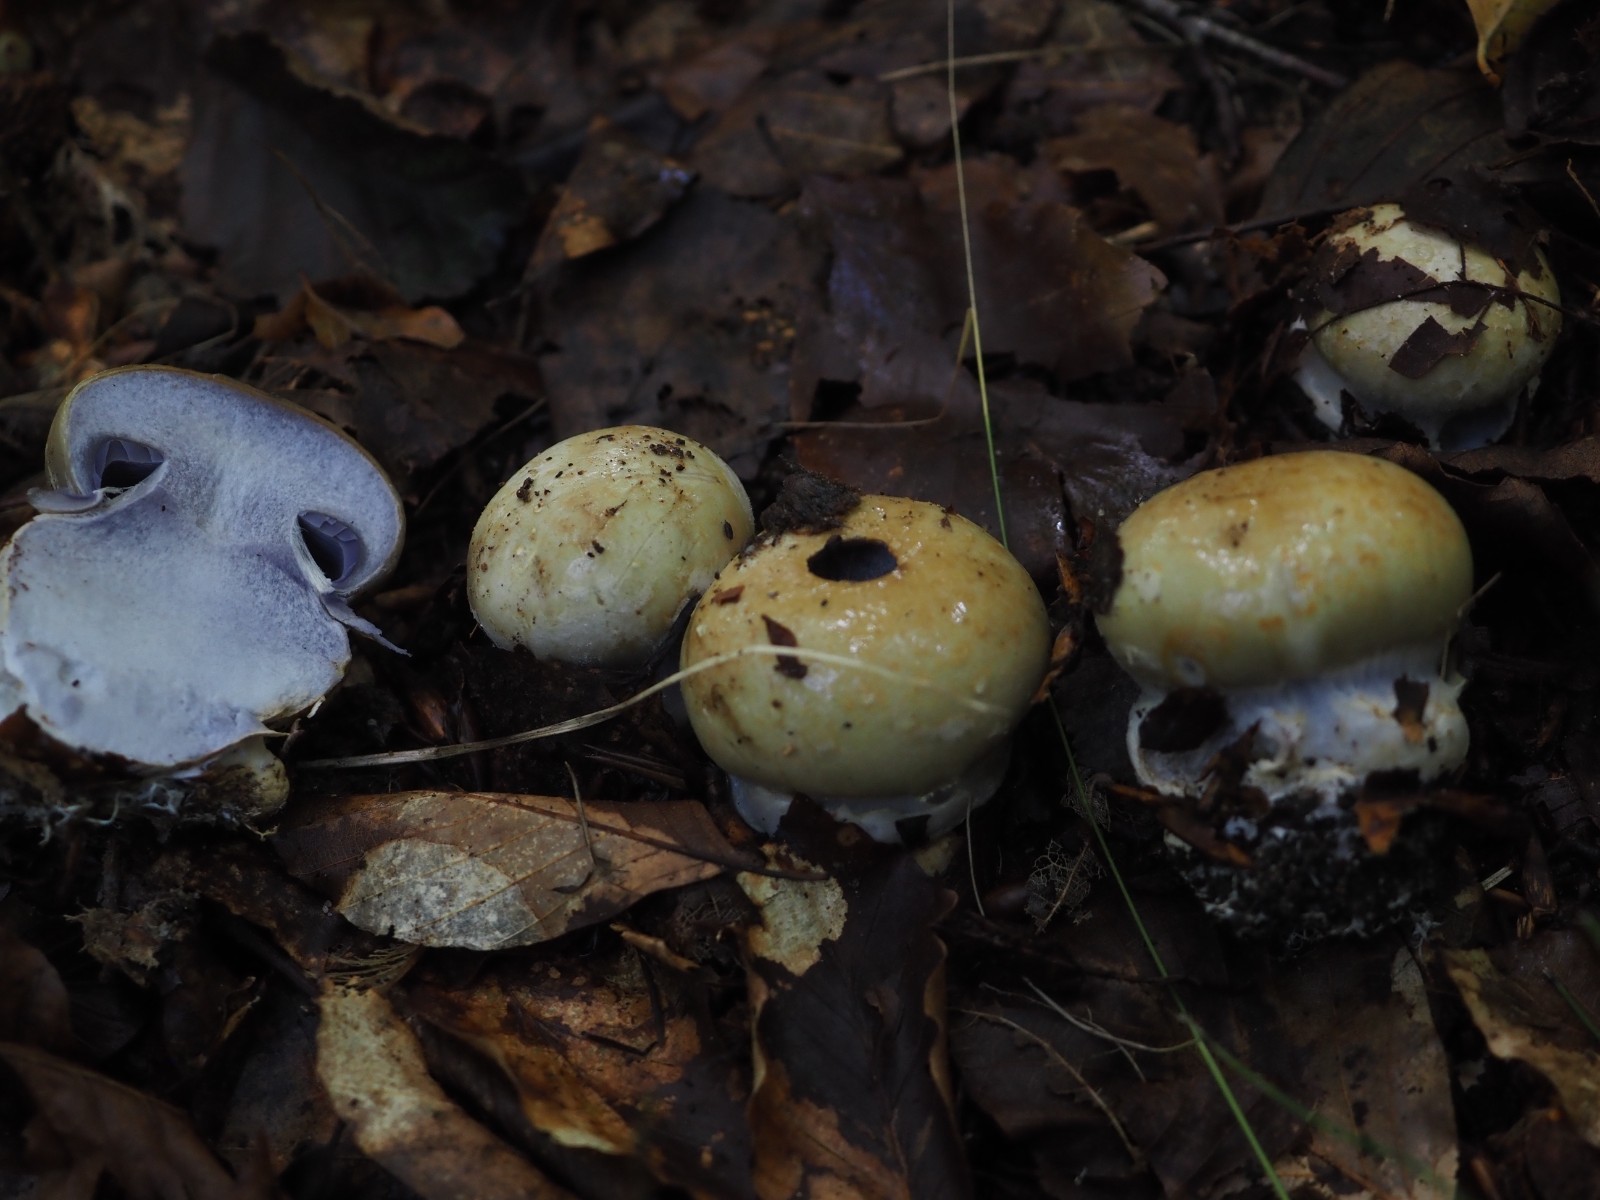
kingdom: Fungi
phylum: Basidiomycota
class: Agaricomycetes
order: Agaricales
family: Cortinariaceae
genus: Cortinarius
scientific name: Cortinarius anserinus
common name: bøge-slørhat
